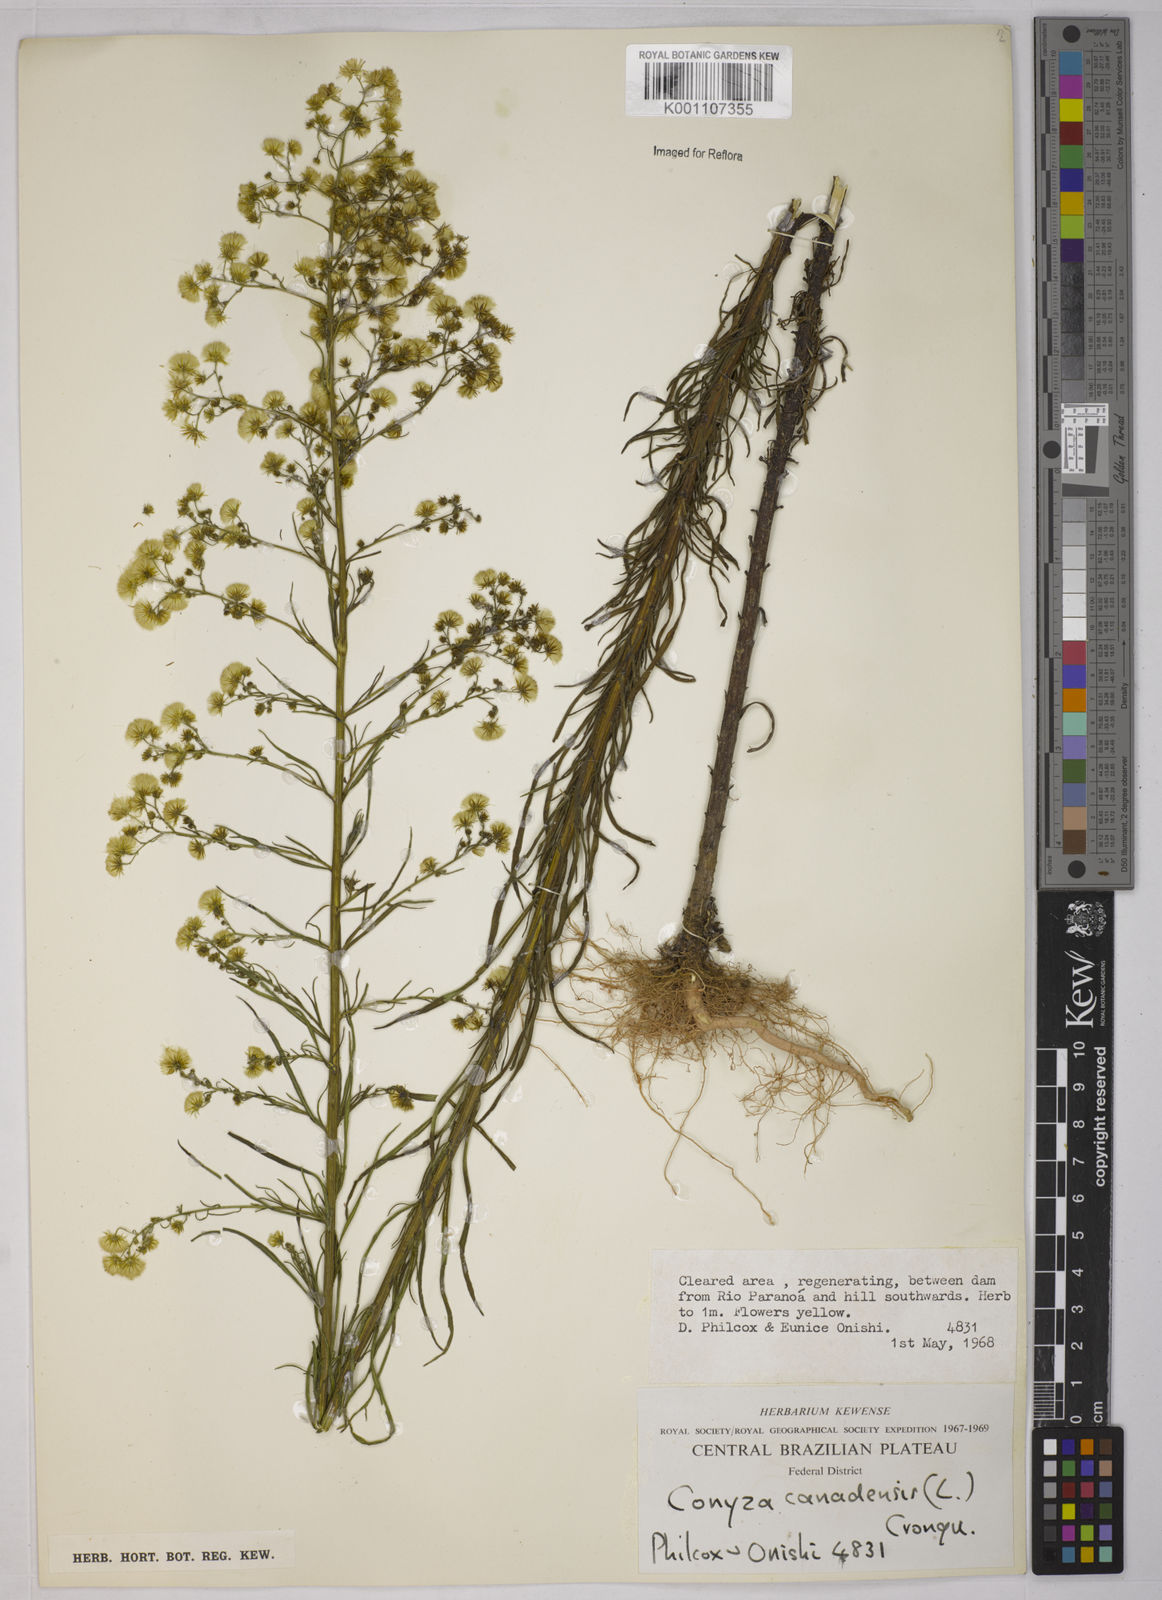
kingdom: Plantae
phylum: Tracheophyta
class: Magnoliopsida
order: Asterales
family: Asteraceae
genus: Erigeron
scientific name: Erigeron canadensis
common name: Canadian fleabane
